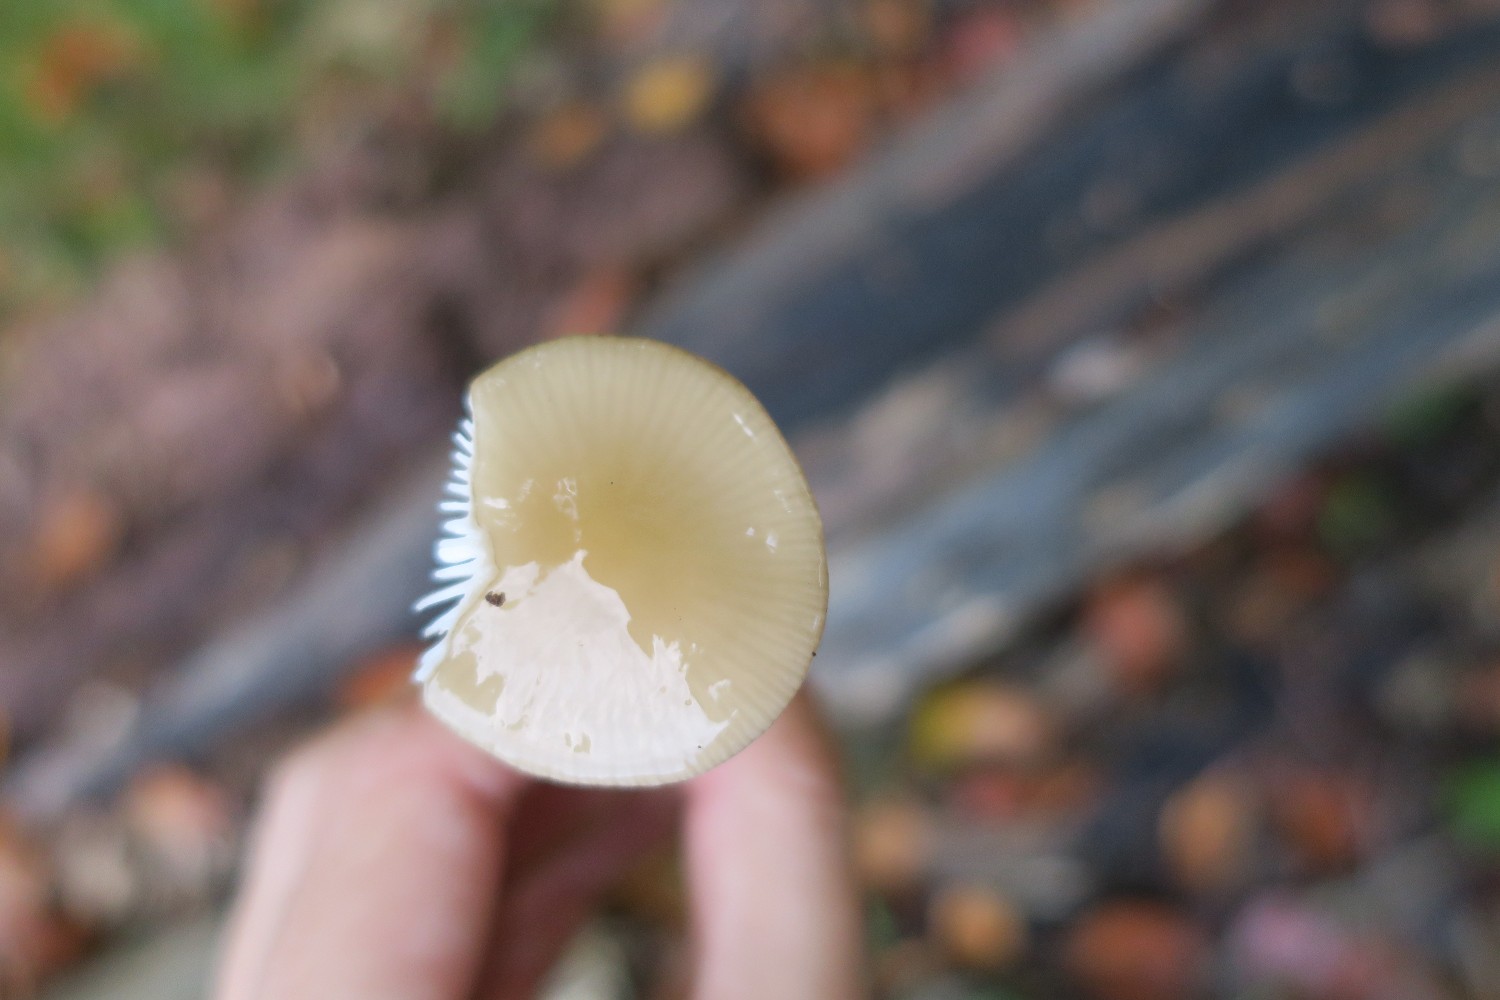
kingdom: Fungi
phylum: Basidiomycota
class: Agaricomycetes
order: Agaricales
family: Physalacriaceae
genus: Hymenopellis
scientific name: Hymenopellis radicata
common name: almindelig pælerodshat
